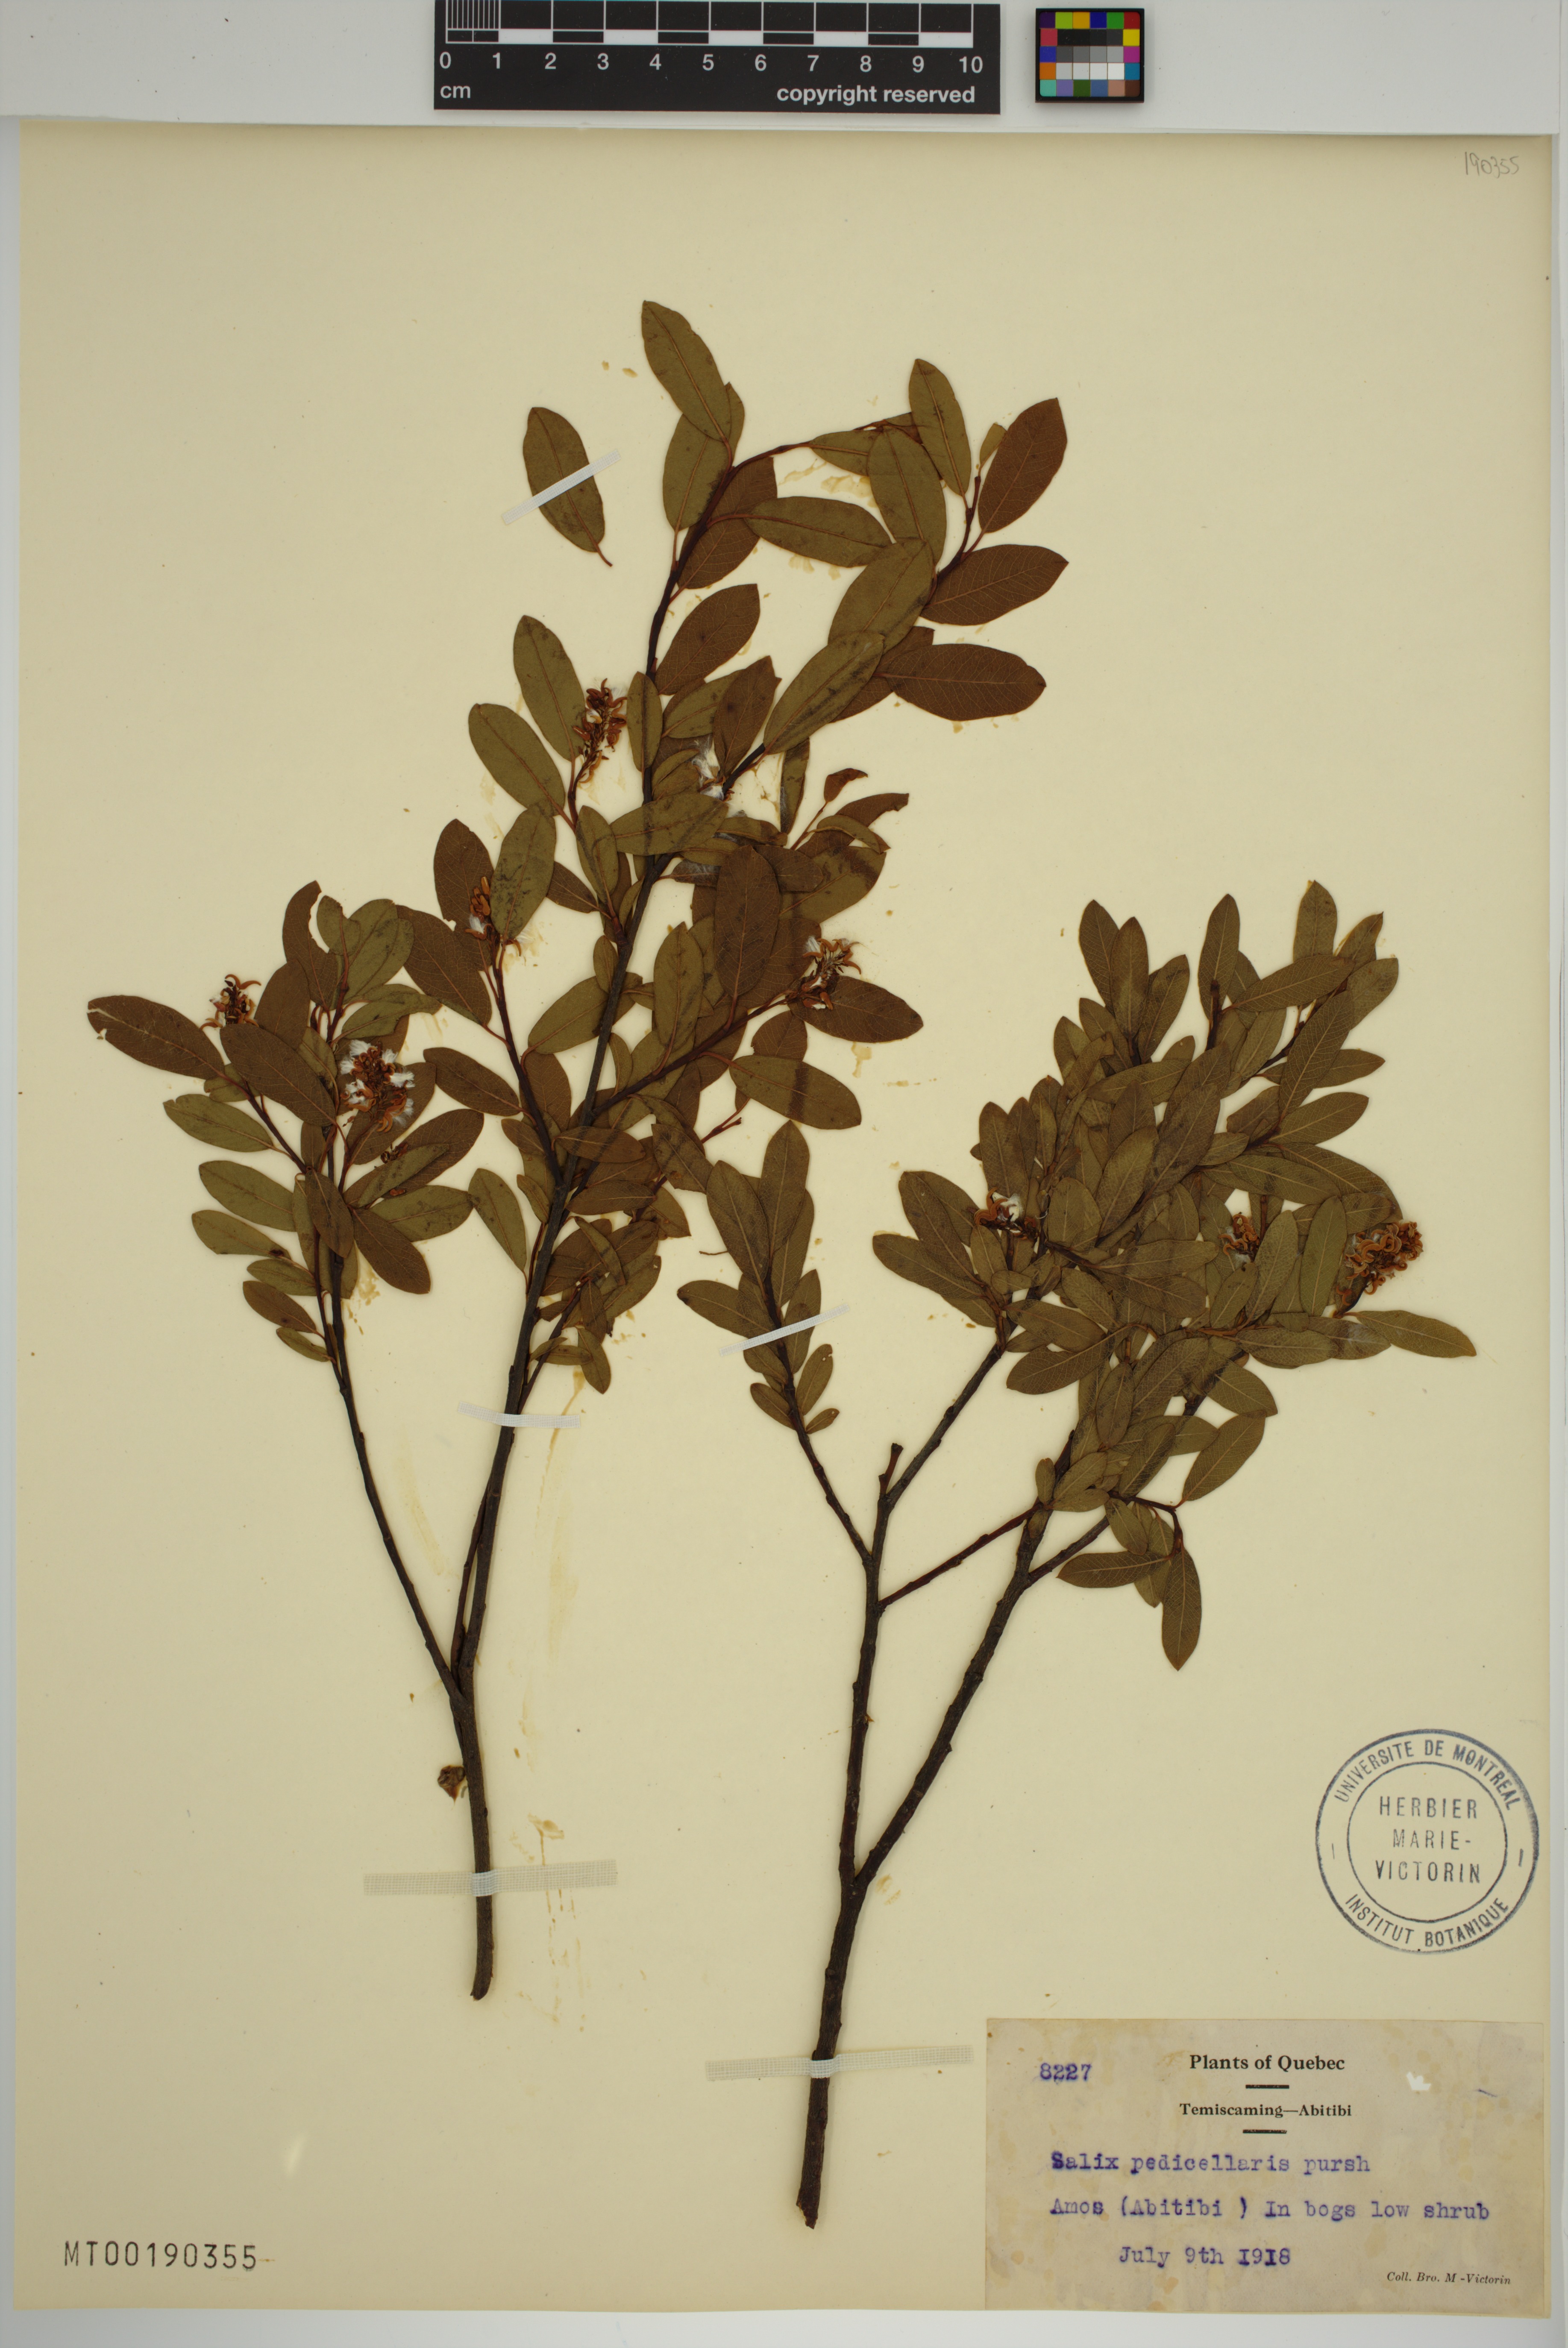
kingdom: Plantae
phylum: Tracheophyta
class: Magnoliopsida
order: Malpighiales
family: Salicaceae
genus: Salix
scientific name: Salix pedicellaris
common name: Bog willow
